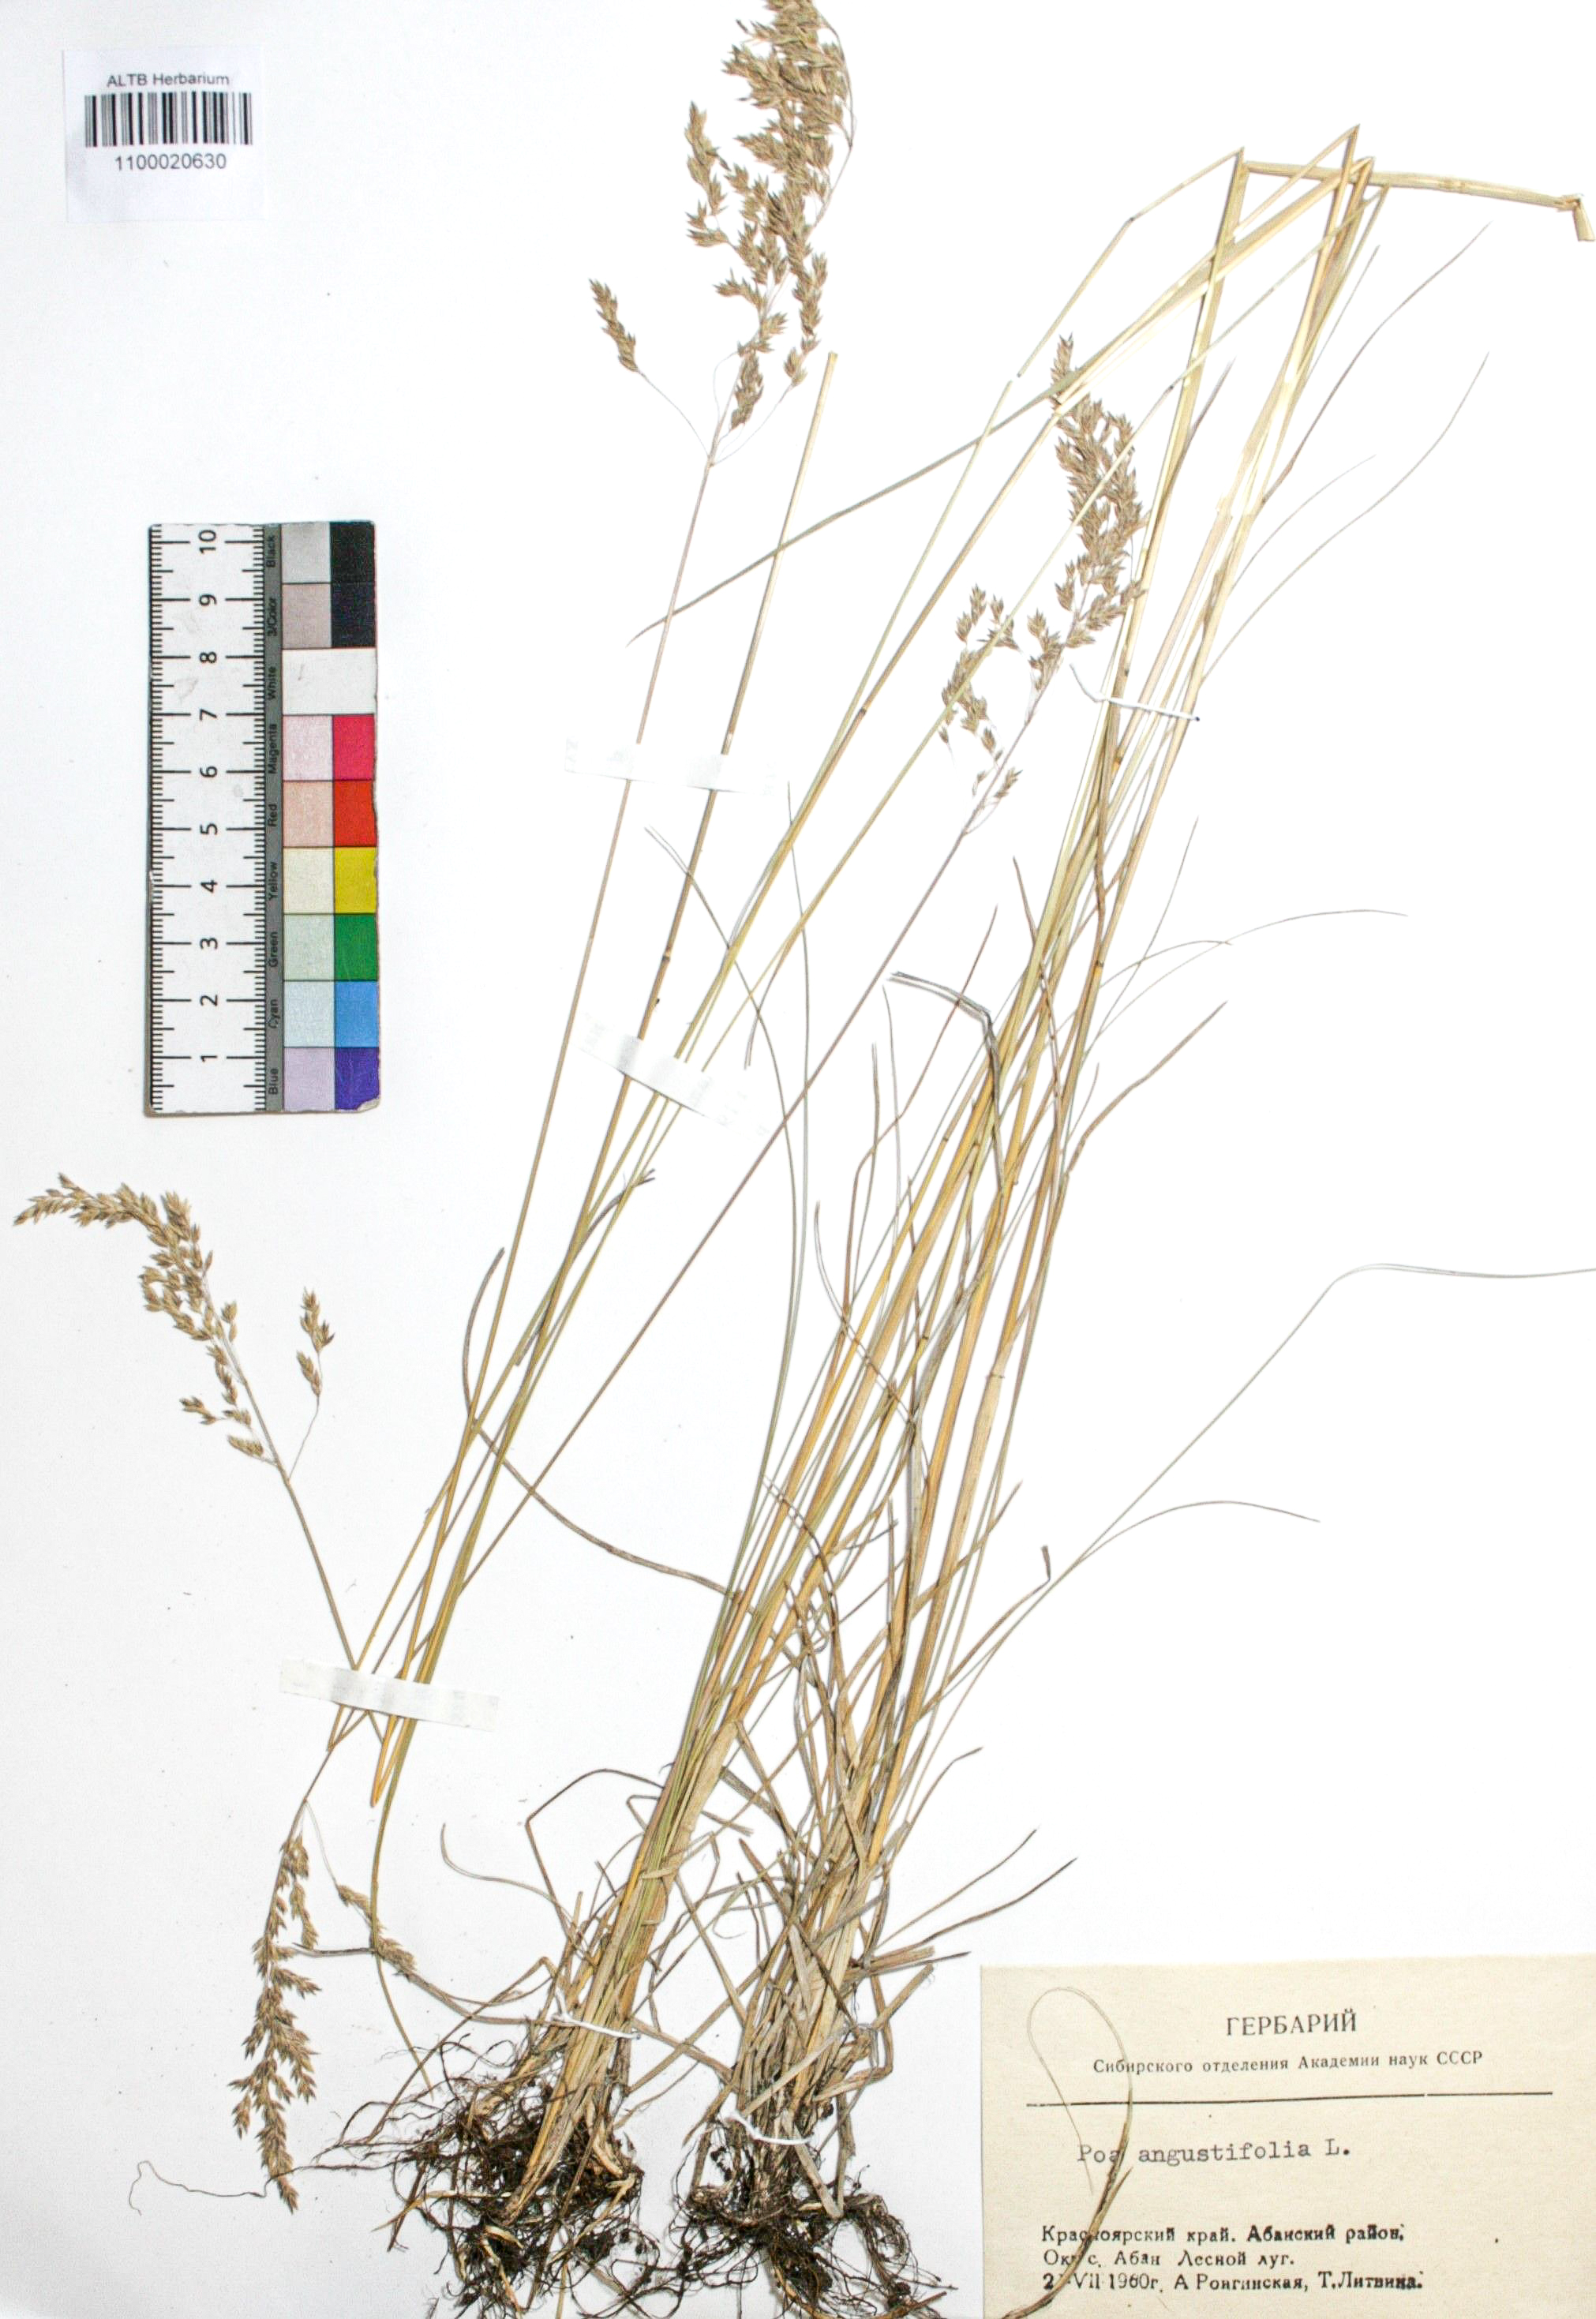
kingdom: Plantae
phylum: Tracheophyta
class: Liliopsida
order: Poales
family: Poaceae
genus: Poa
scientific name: Poa angustifolia
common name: Narrow-leaved meadow-grass
